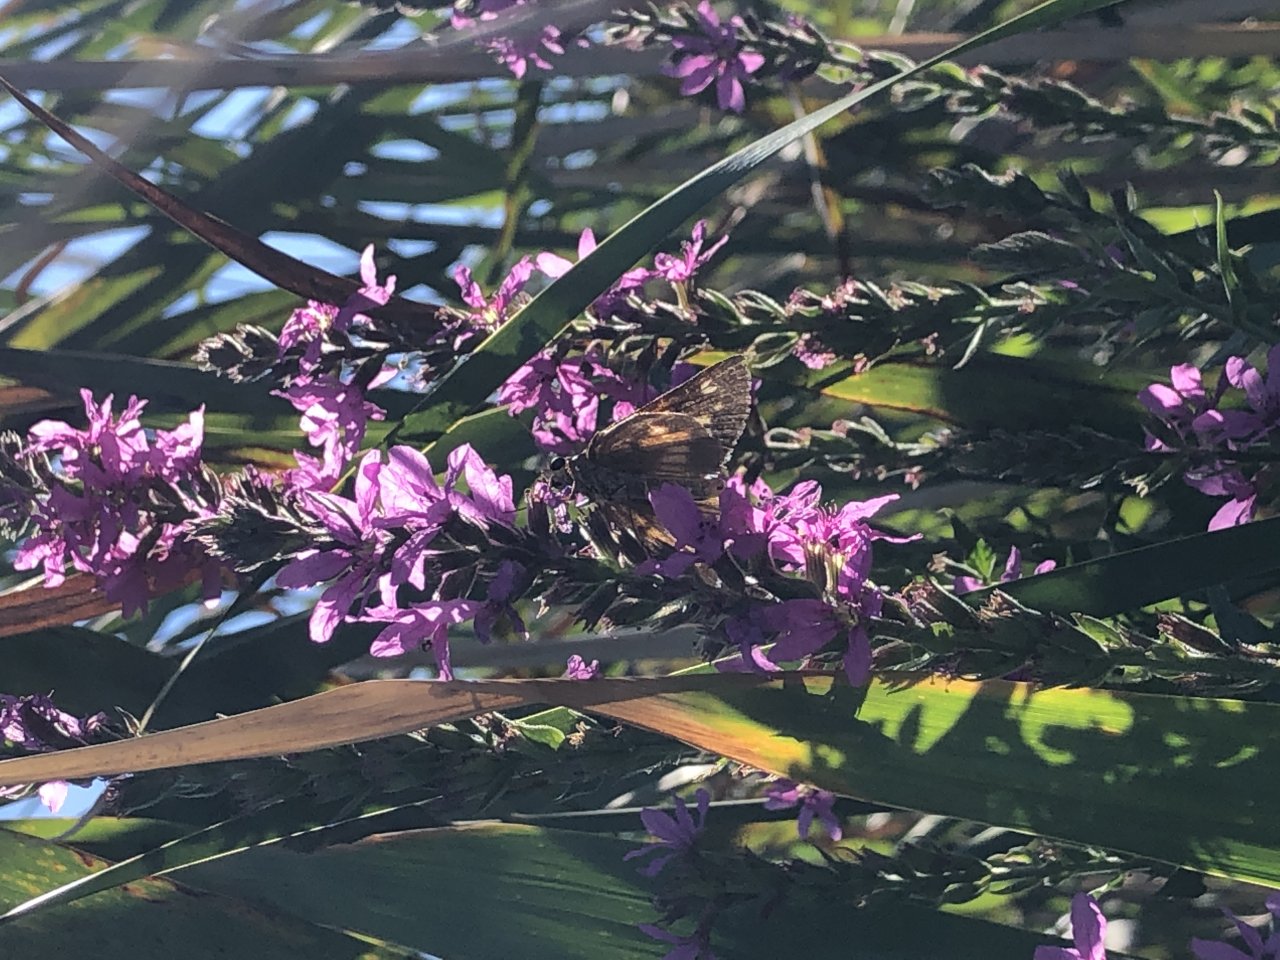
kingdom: Animalia
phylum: Arthropoda
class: Insecta
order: Lepidoptera
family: Hesperiidae
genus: Poanes
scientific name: Poanes viator
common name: Broad-winged Skipper
